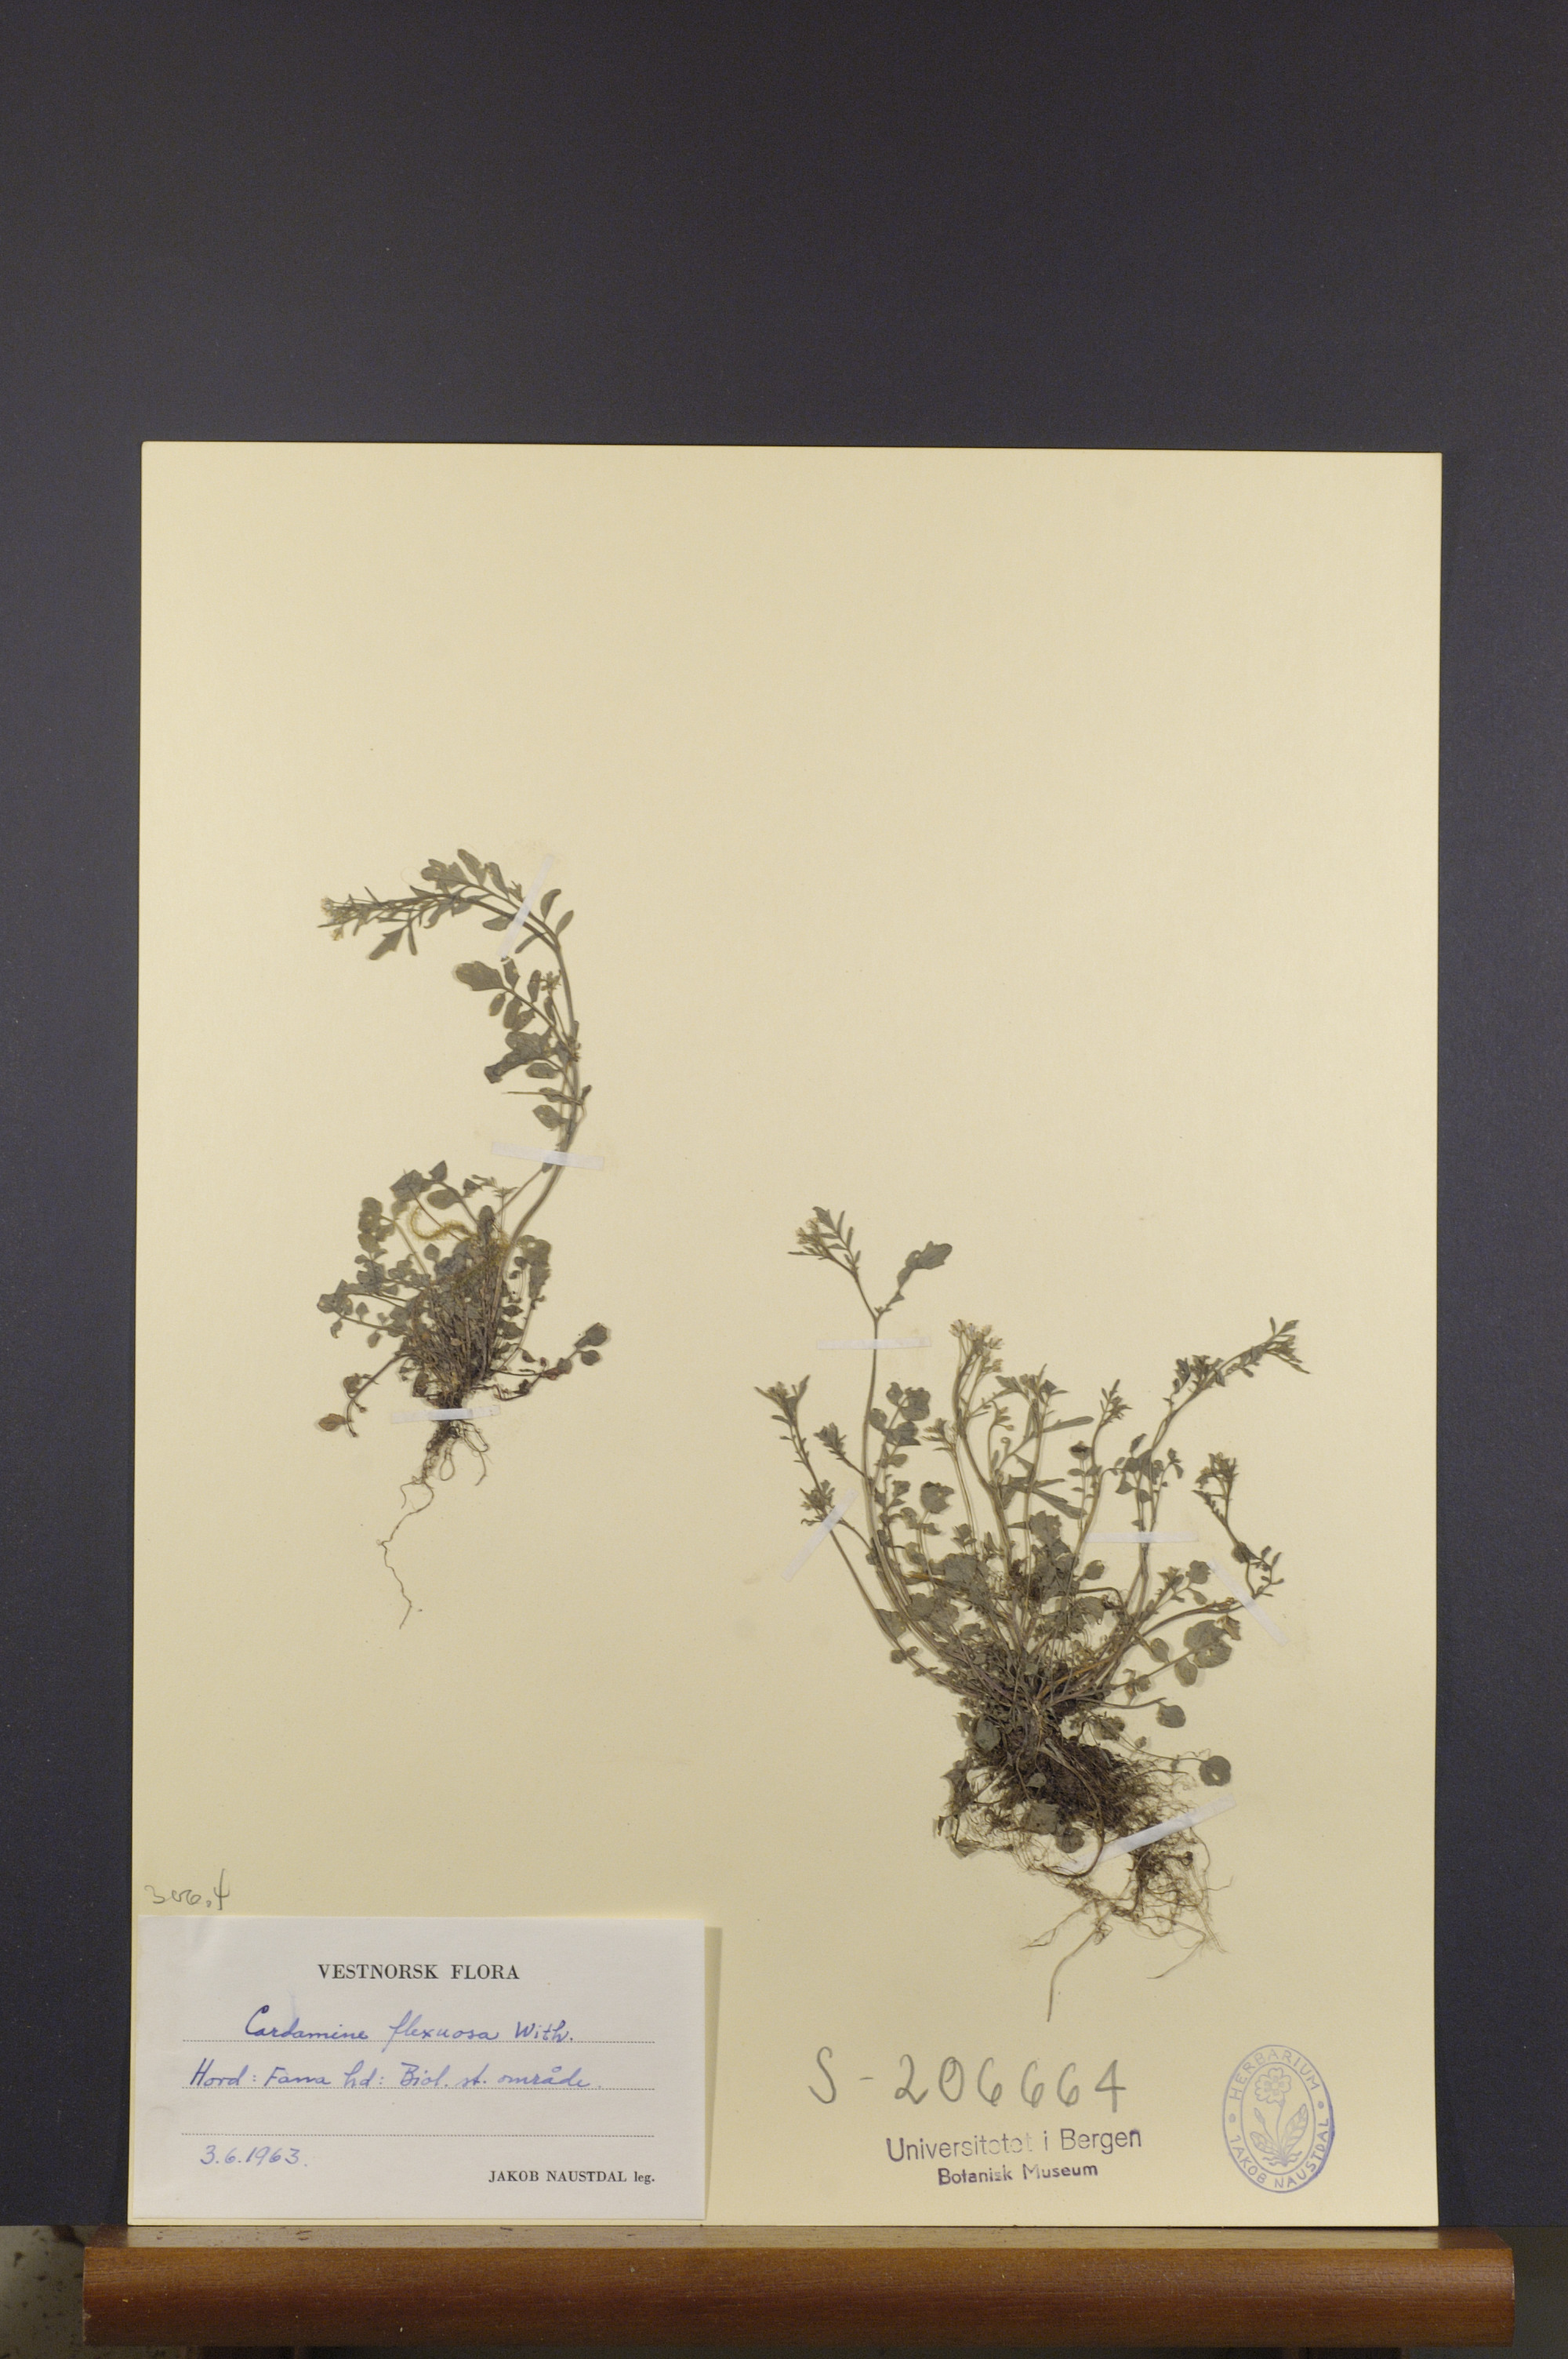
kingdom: Plantae
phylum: Tracheophyta
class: Magnoliopsida
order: Brassicales
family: Brassicaceae
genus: Cardamine
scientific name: Cardamine flexuosa
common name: Woodland bittercress
